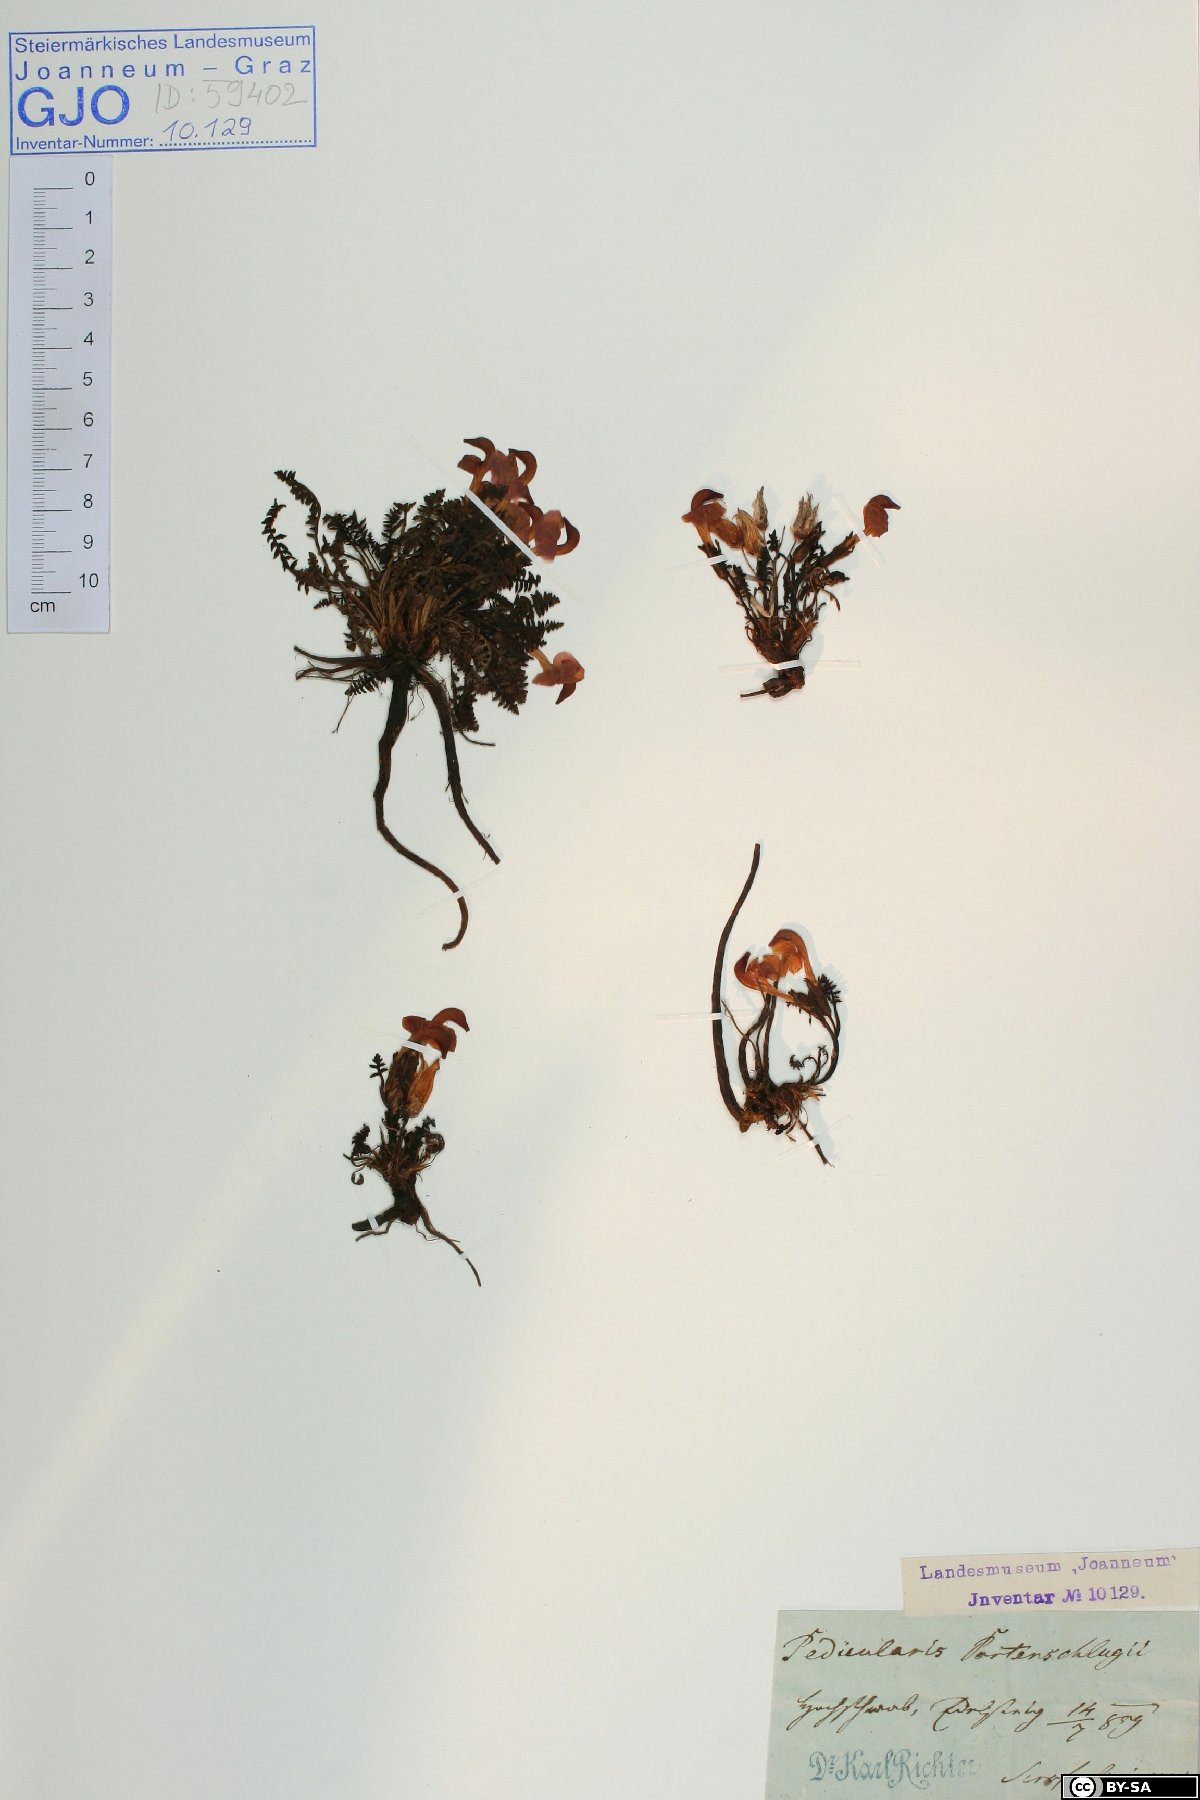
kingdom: Plantae
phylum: Tracheophyta
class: Magnoliopsida
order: Lamiales
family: Orobanchaceae
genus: Pedicularis
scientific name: Pedicularis portenschlagii
